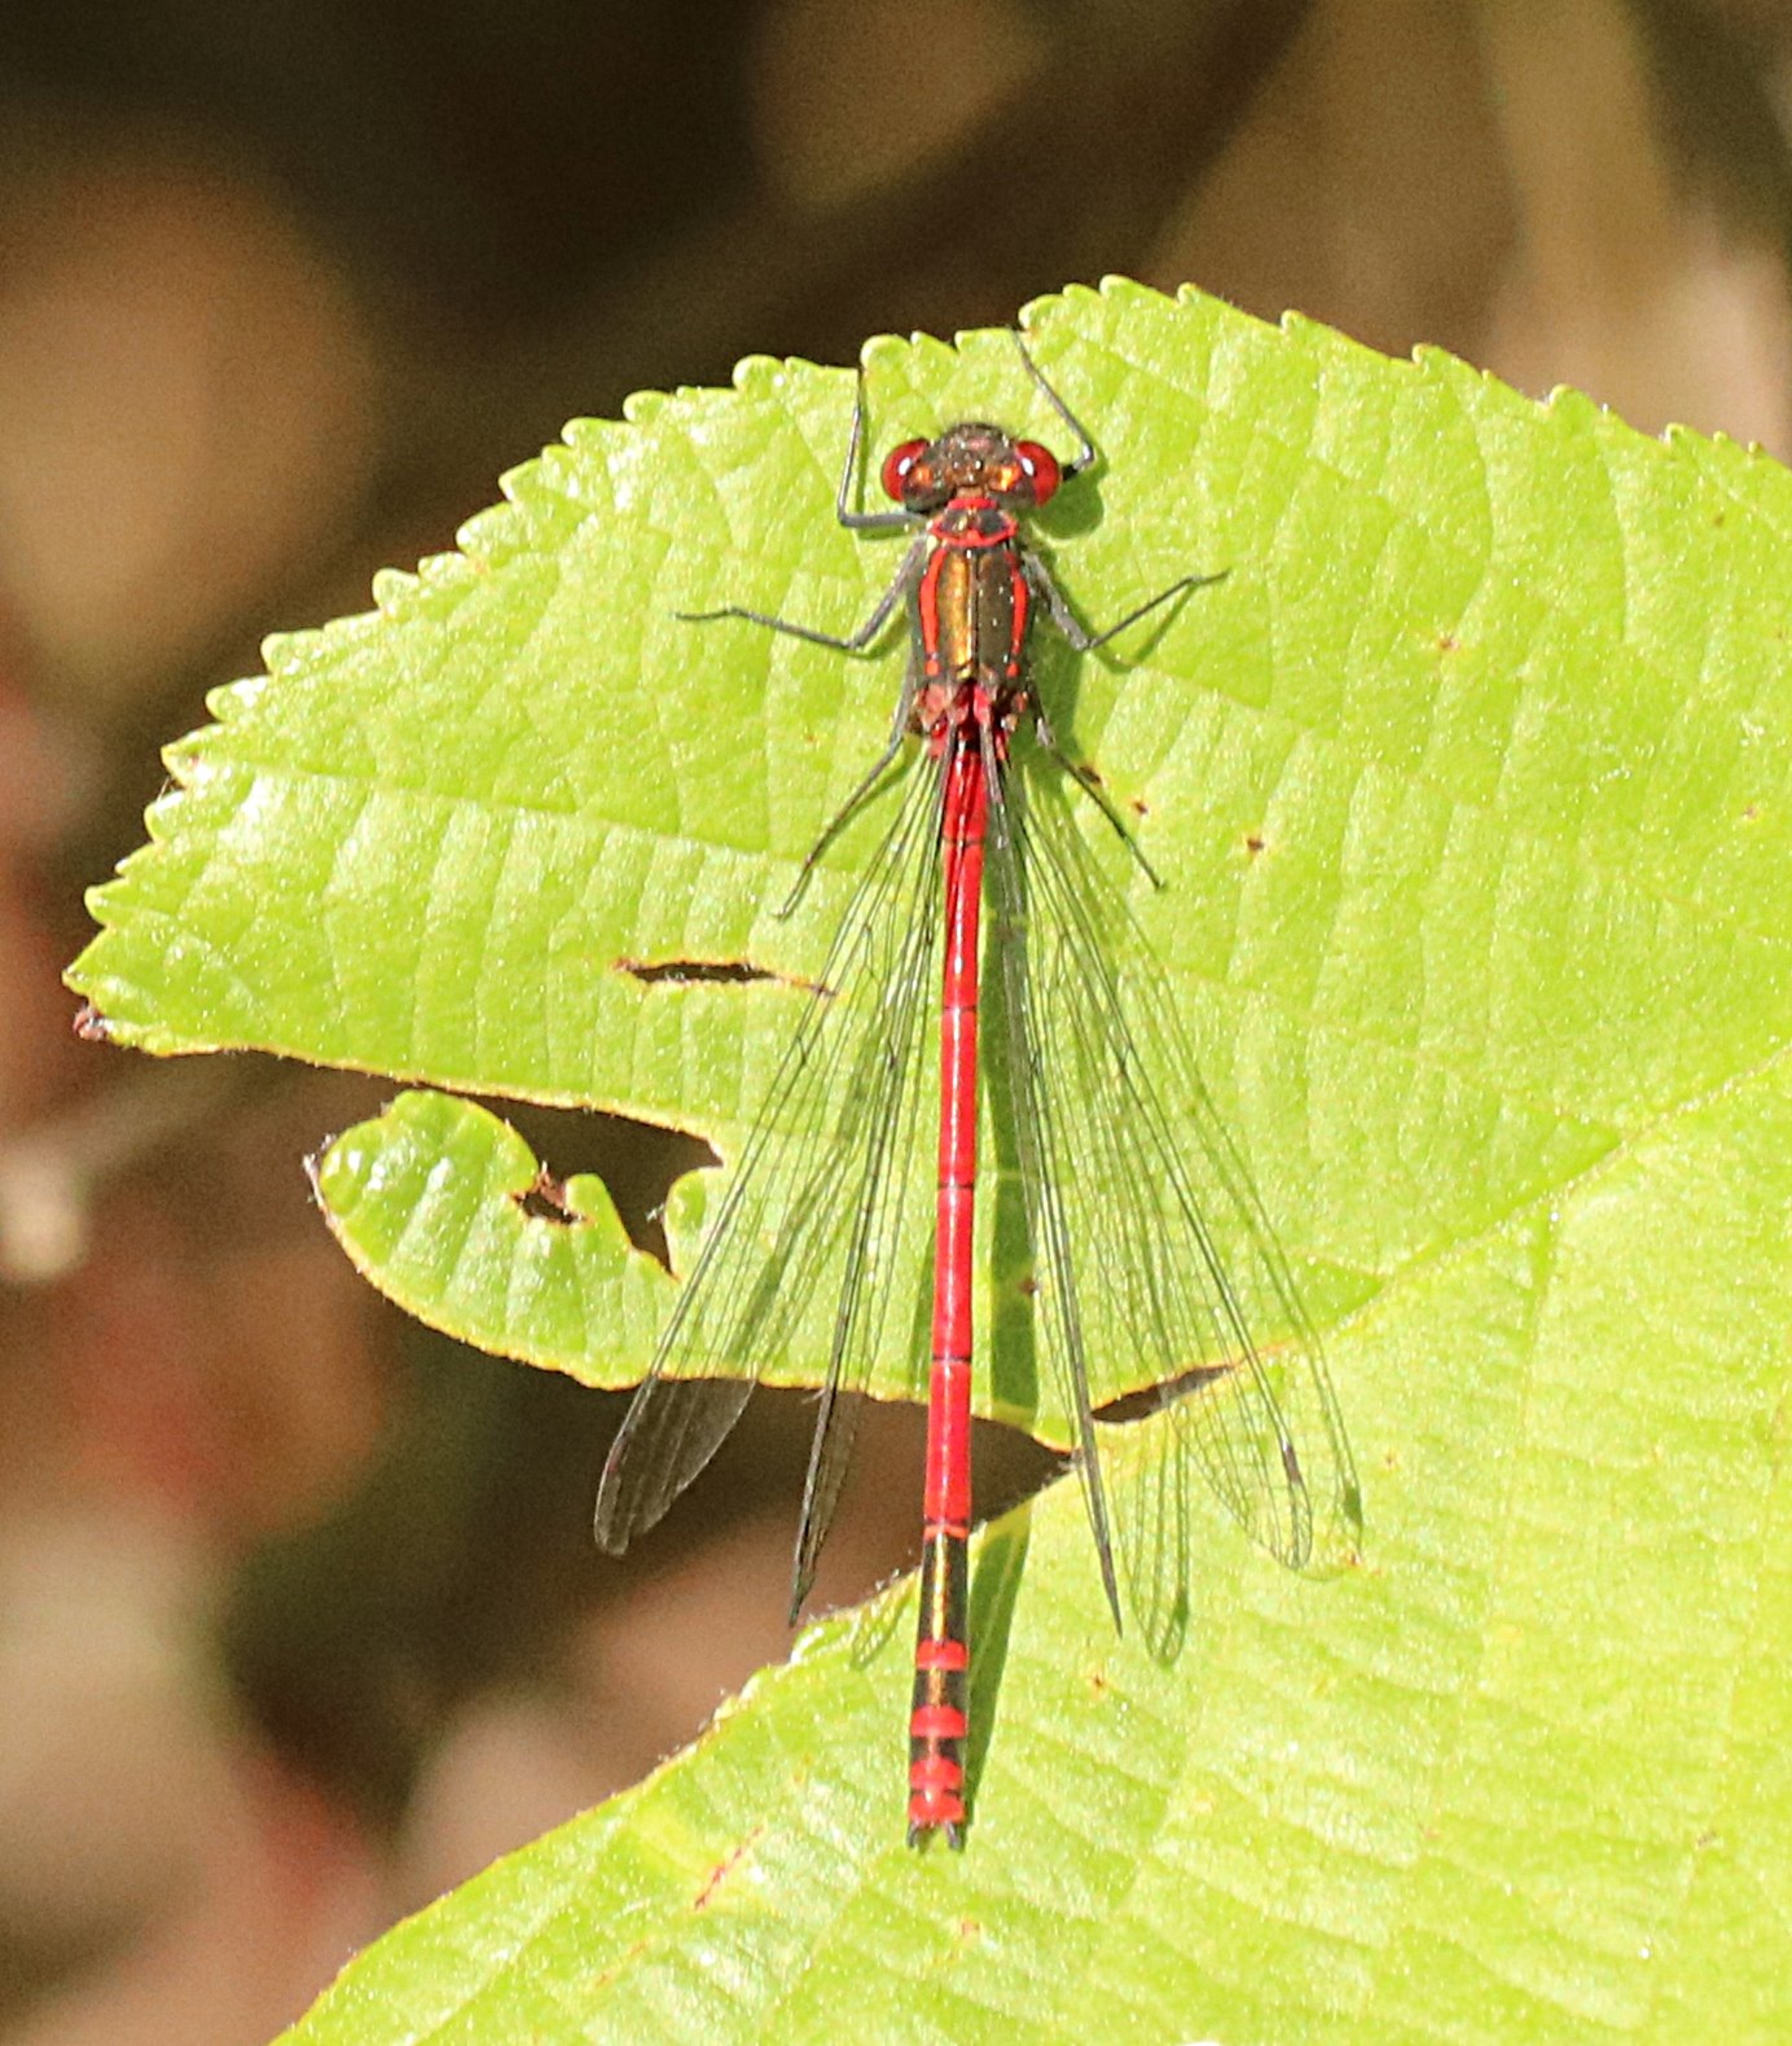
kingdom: Animalia
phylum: Arthropoda
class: Insecta
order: Odonata
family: Coenagrionidae
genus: Pyrrhosoma
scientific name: Pyrrhosoma nymphula
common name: Rød vandnymfe
